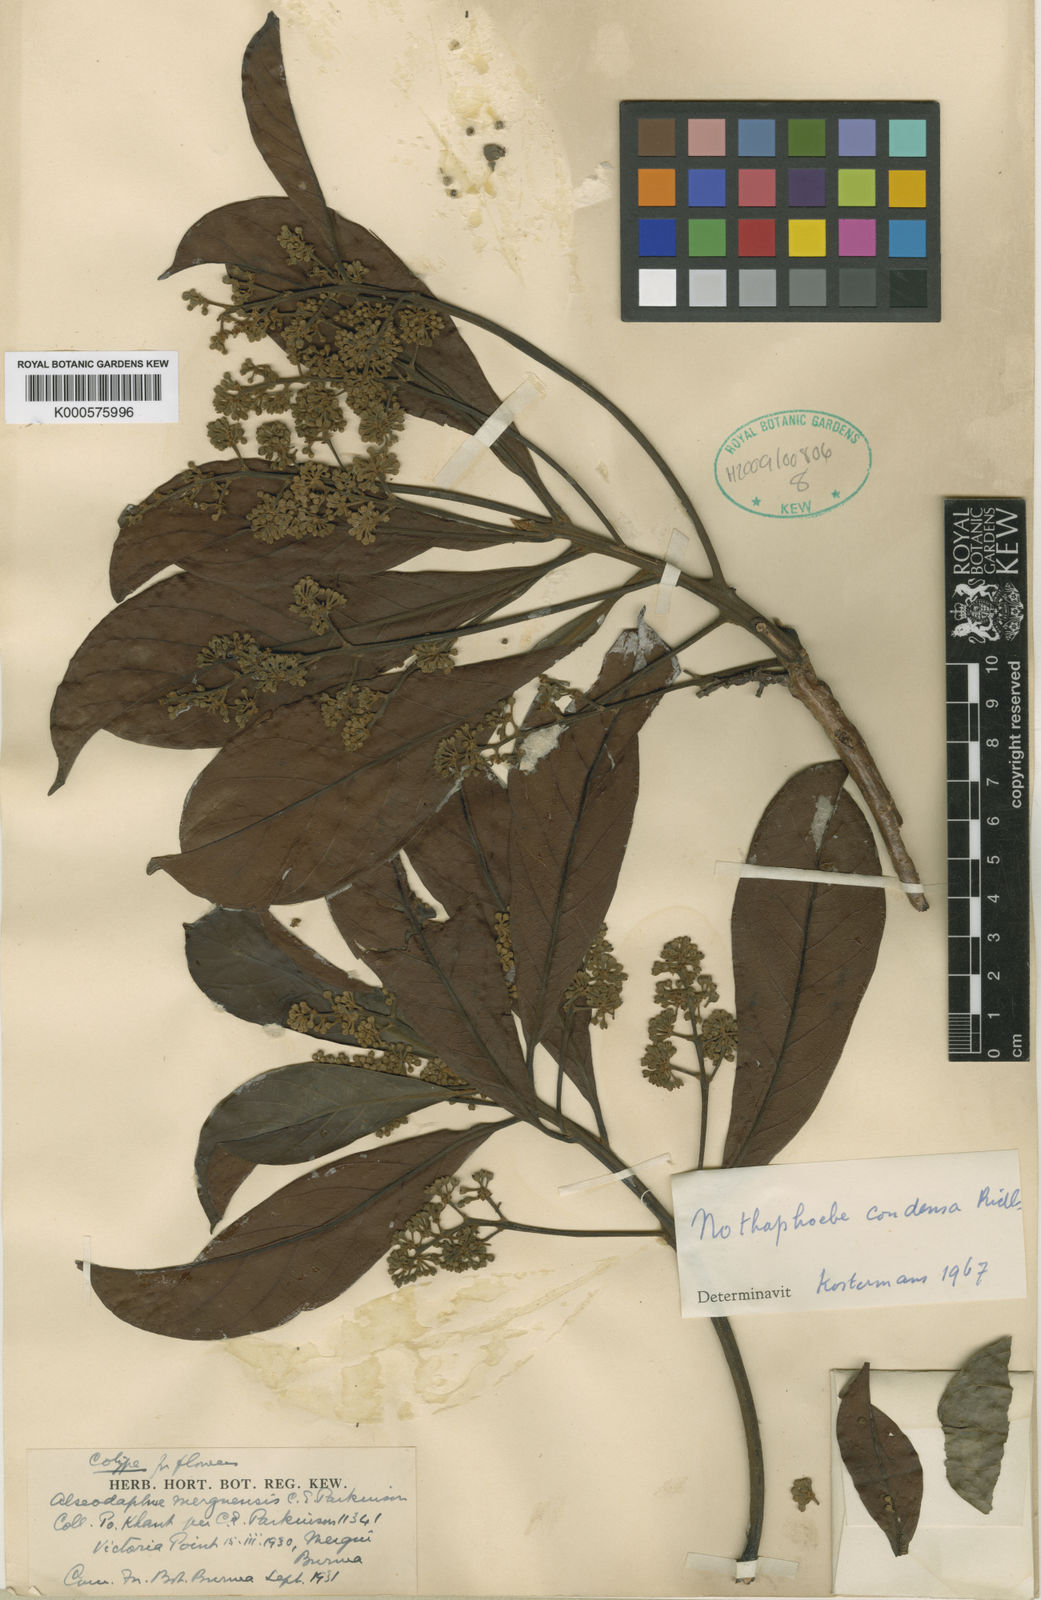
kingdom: Plantae
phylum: Tracheophyta
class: Magnoliopsida
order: Laurales
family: Lauraceae
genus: Nothaphoebe
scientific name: Nothaphoebe condensa
